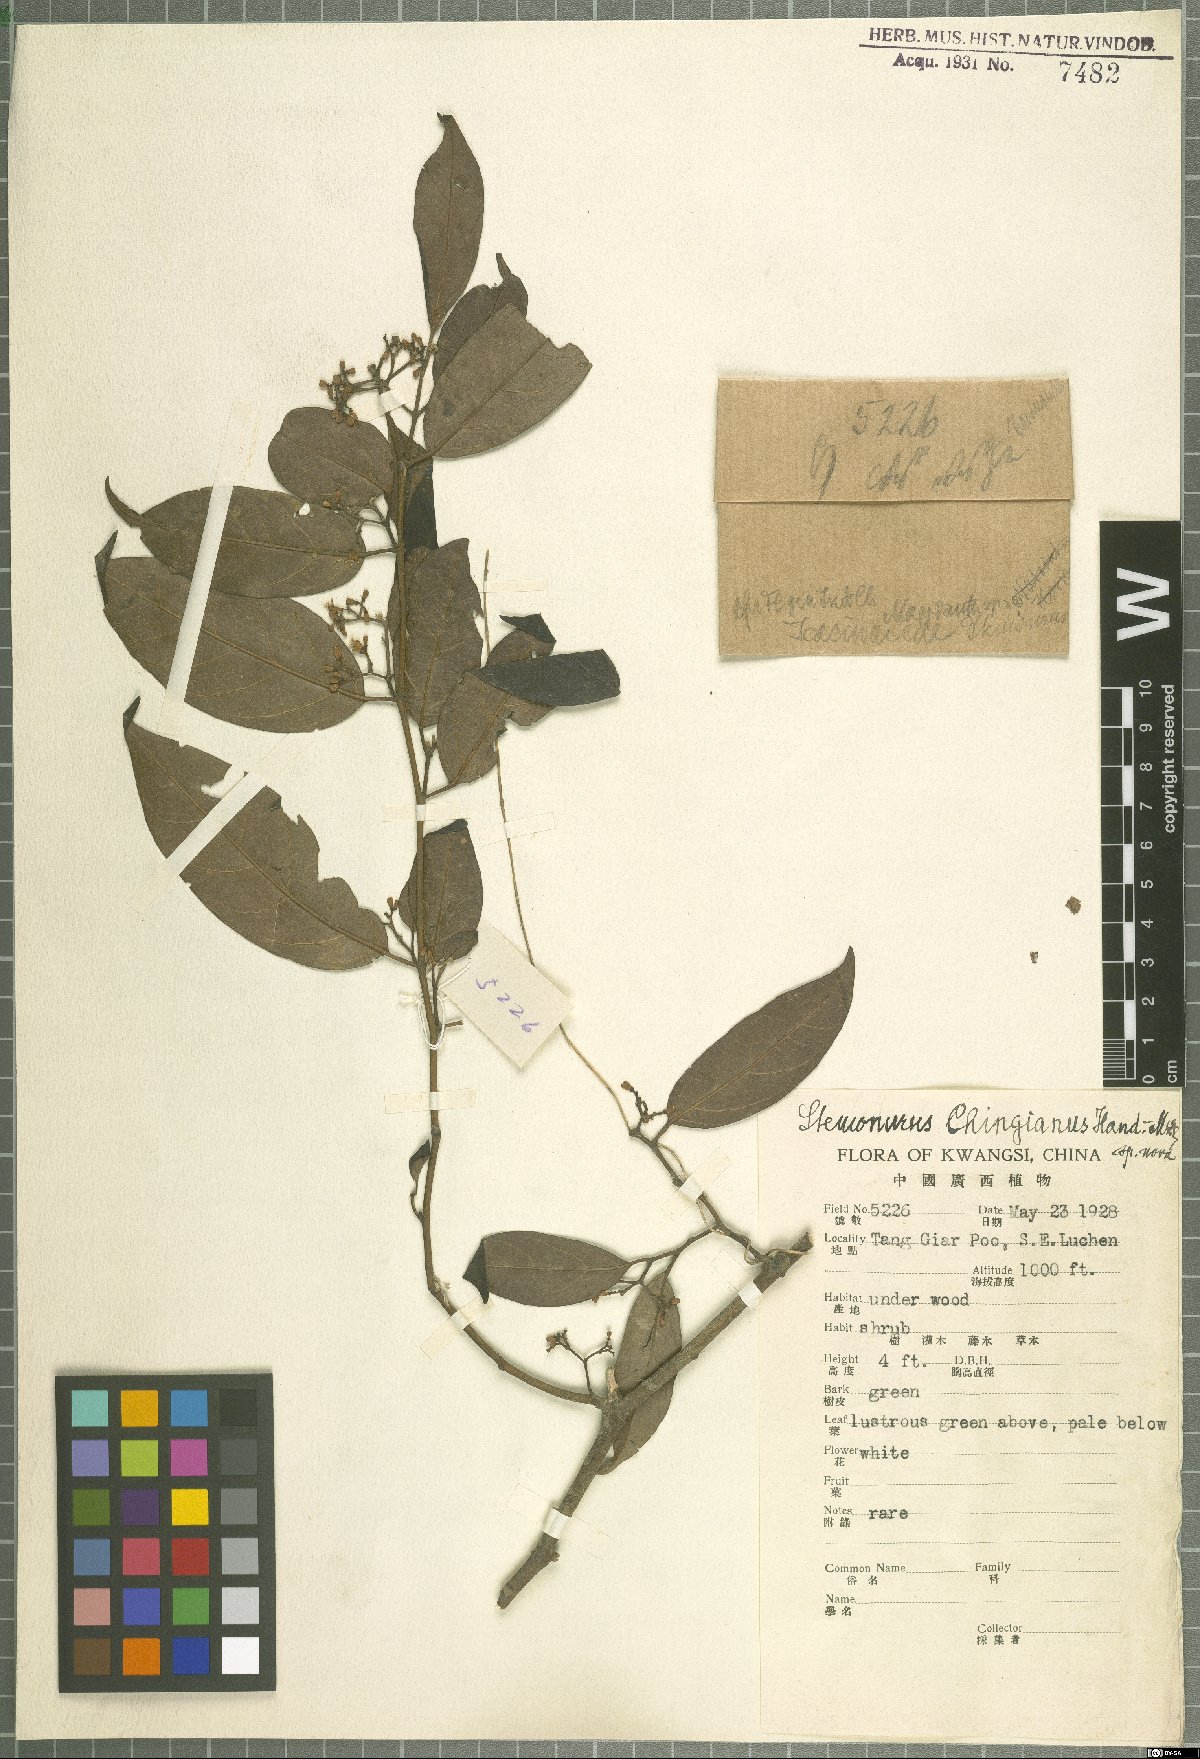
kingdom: Plantae
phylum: Tracheophyta
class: Magnoliopsida
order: Cardiopteridales
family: Stemonuraceae
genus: Gomphandra
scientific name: Gomphandra tetrandra
